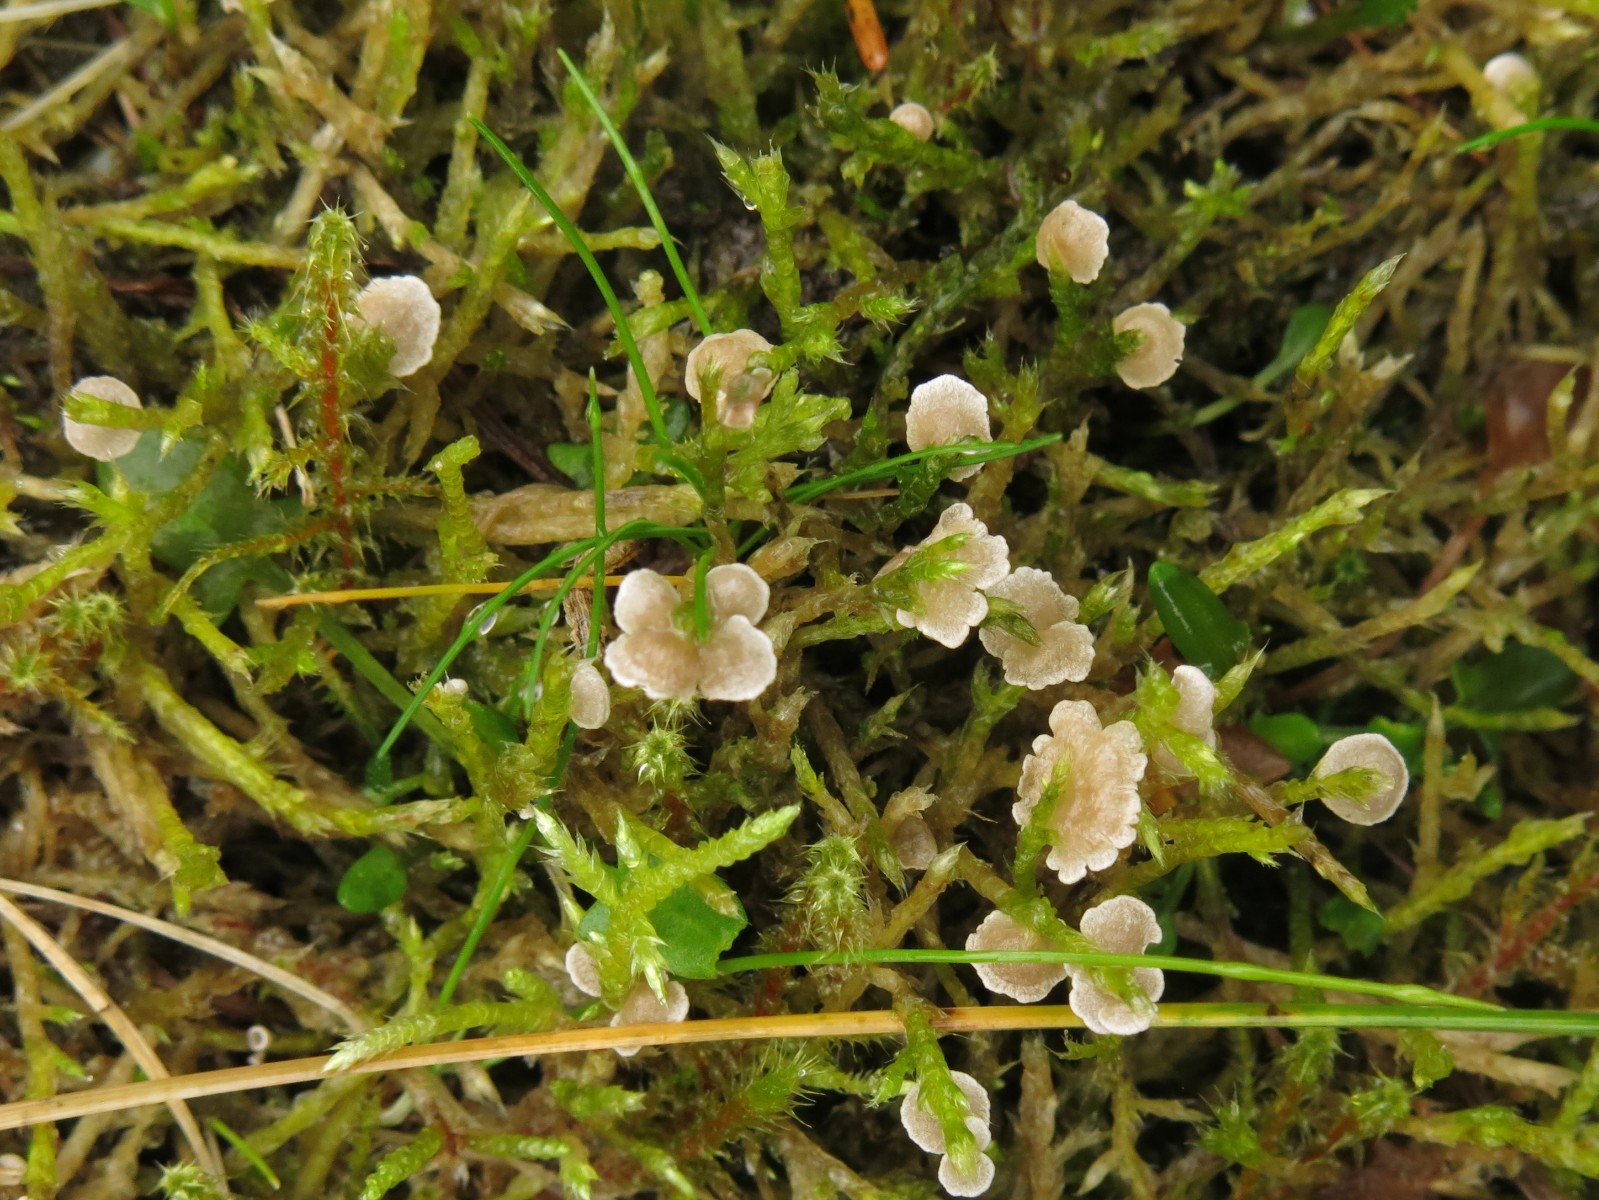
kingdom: Fungi
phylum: Basidiomycota
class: Agaricomycetes
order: Agaricales
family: Hygrophoraceae
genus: Arrhenia
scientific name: Arrhenia retiruga
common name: lille fontænehat
